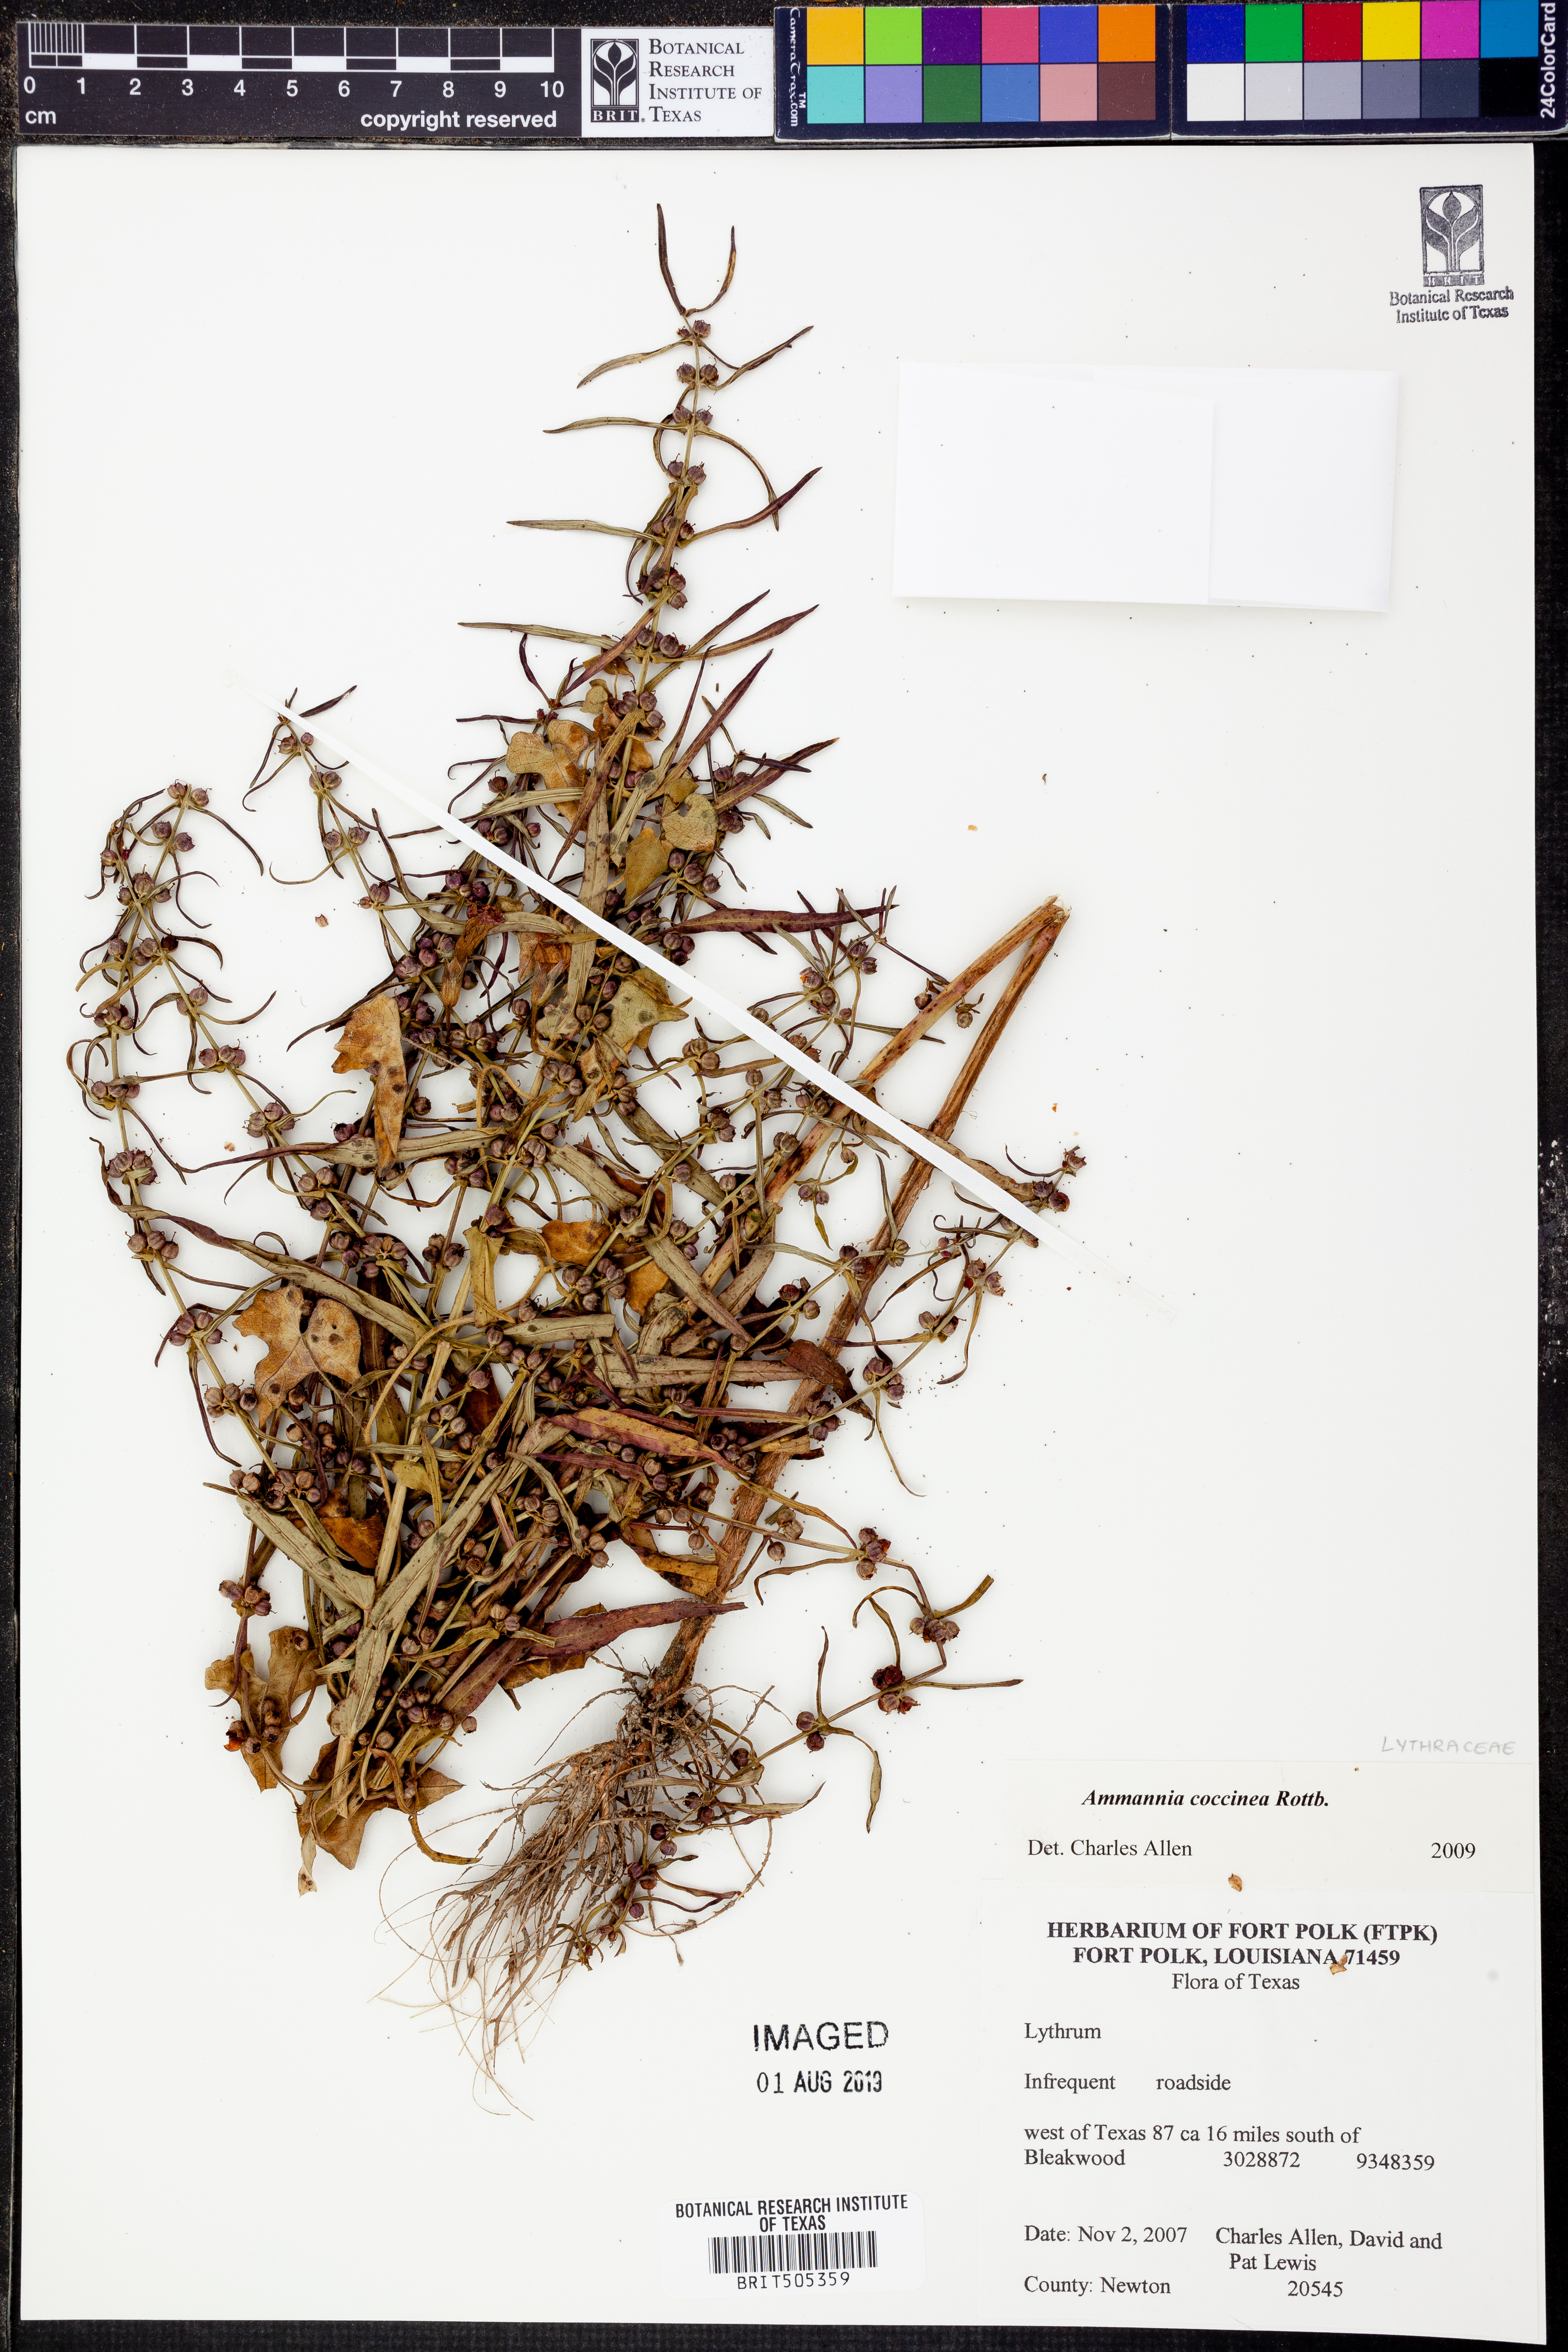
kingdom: Plantae
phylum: Tracheophyta
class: Magnoliopsida
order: Myrtales
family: Lythraceae
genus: Ammannia
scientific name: Ammannia coccinea
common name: Valley redstem
